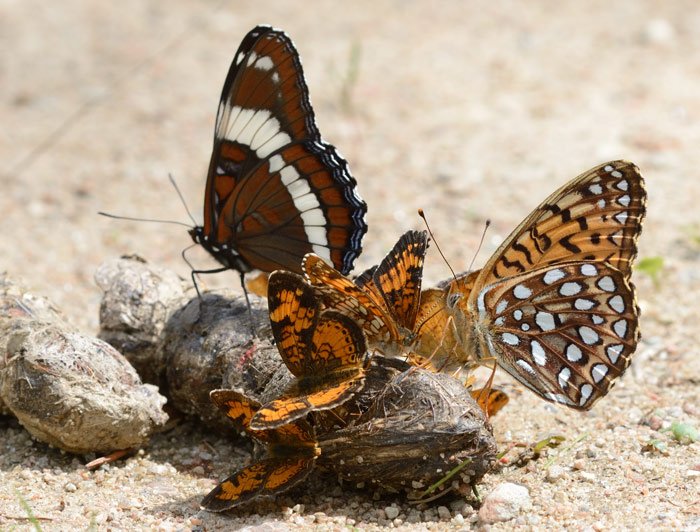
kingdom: Animalia
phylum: Arthropoda
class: Insecta
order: Lepidoptera
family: Nymphalidae
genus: Speyeria
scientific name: Speyeria atlantis
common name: Atlantis Fritillary
